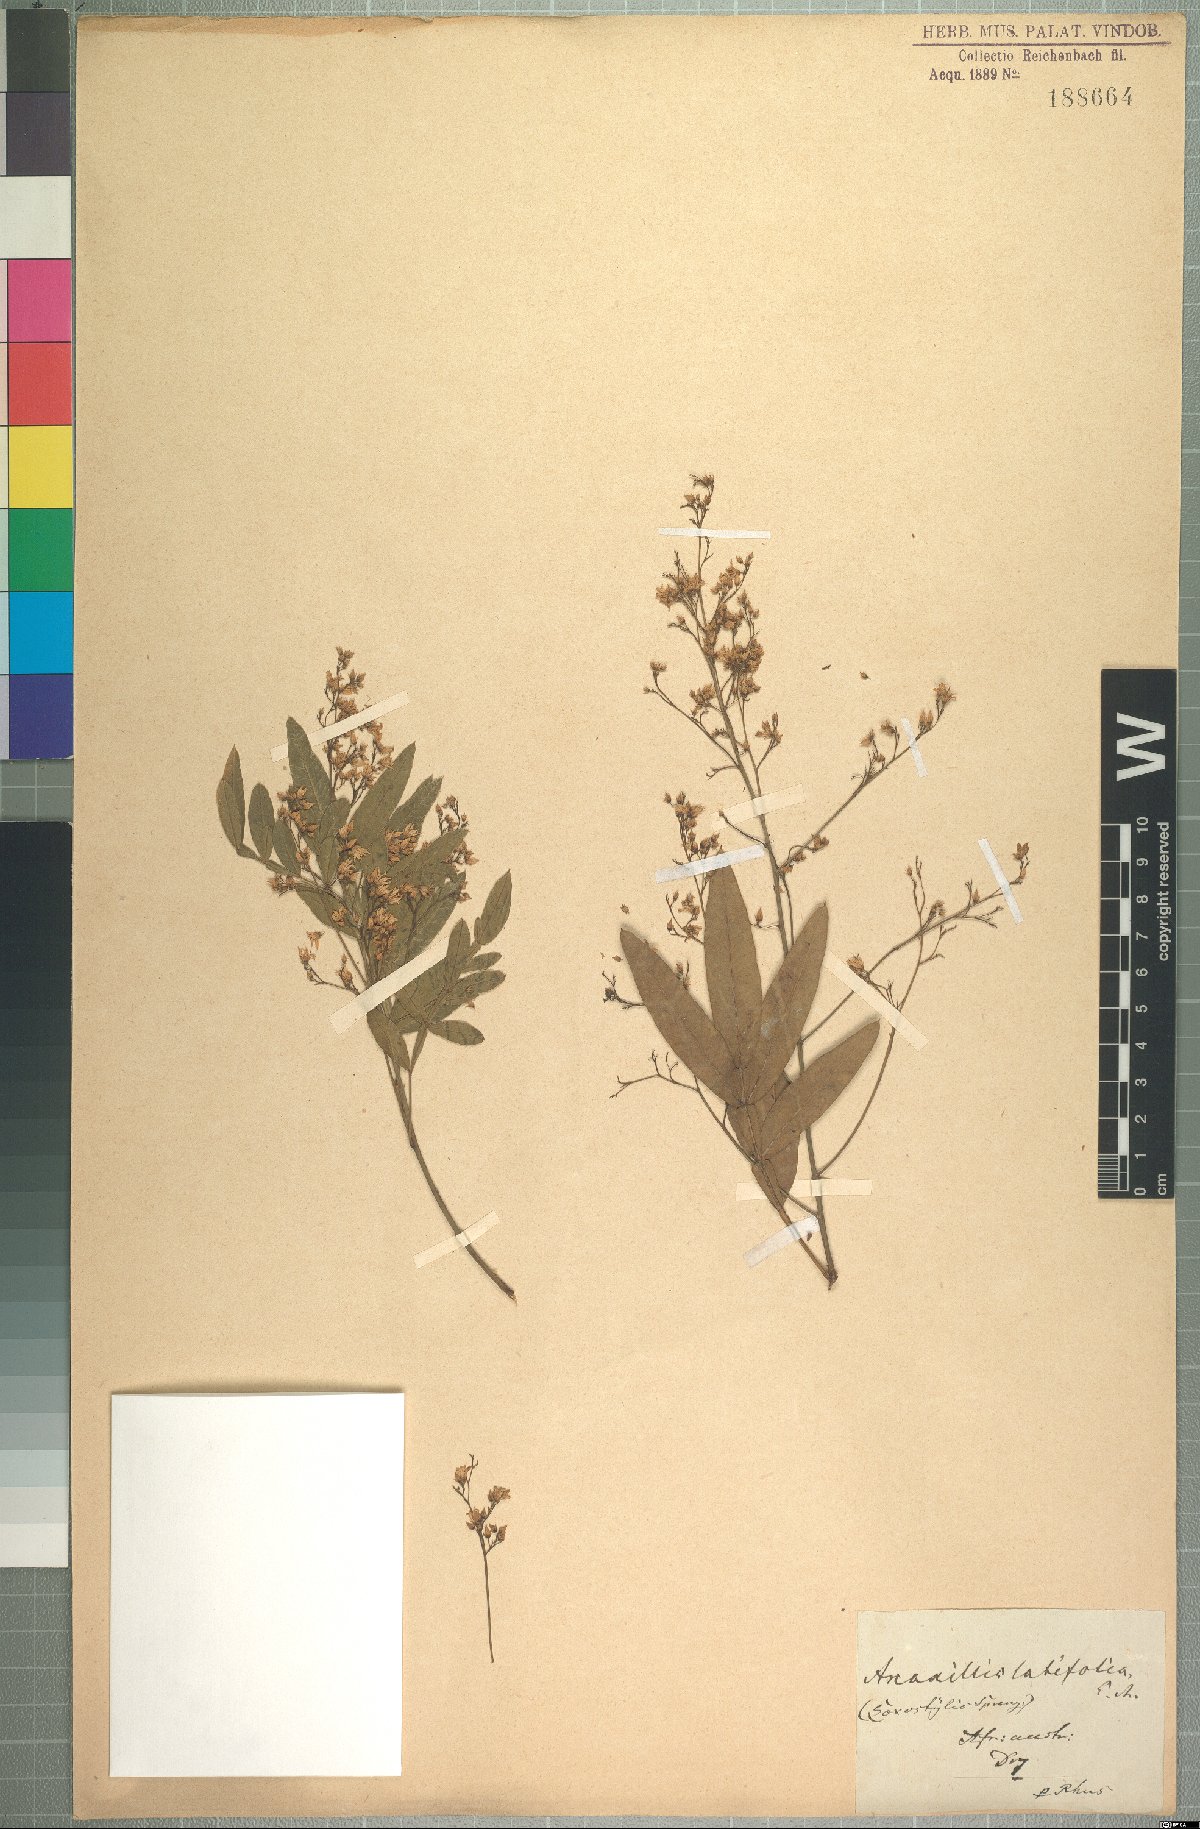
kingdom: Plantae
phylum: Tracheophyta
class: Magnoliopsida
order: Sapindales
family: Anacardiaceae
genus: Loxostylis
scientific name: Loxostylis alata
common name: Wild peppertree
